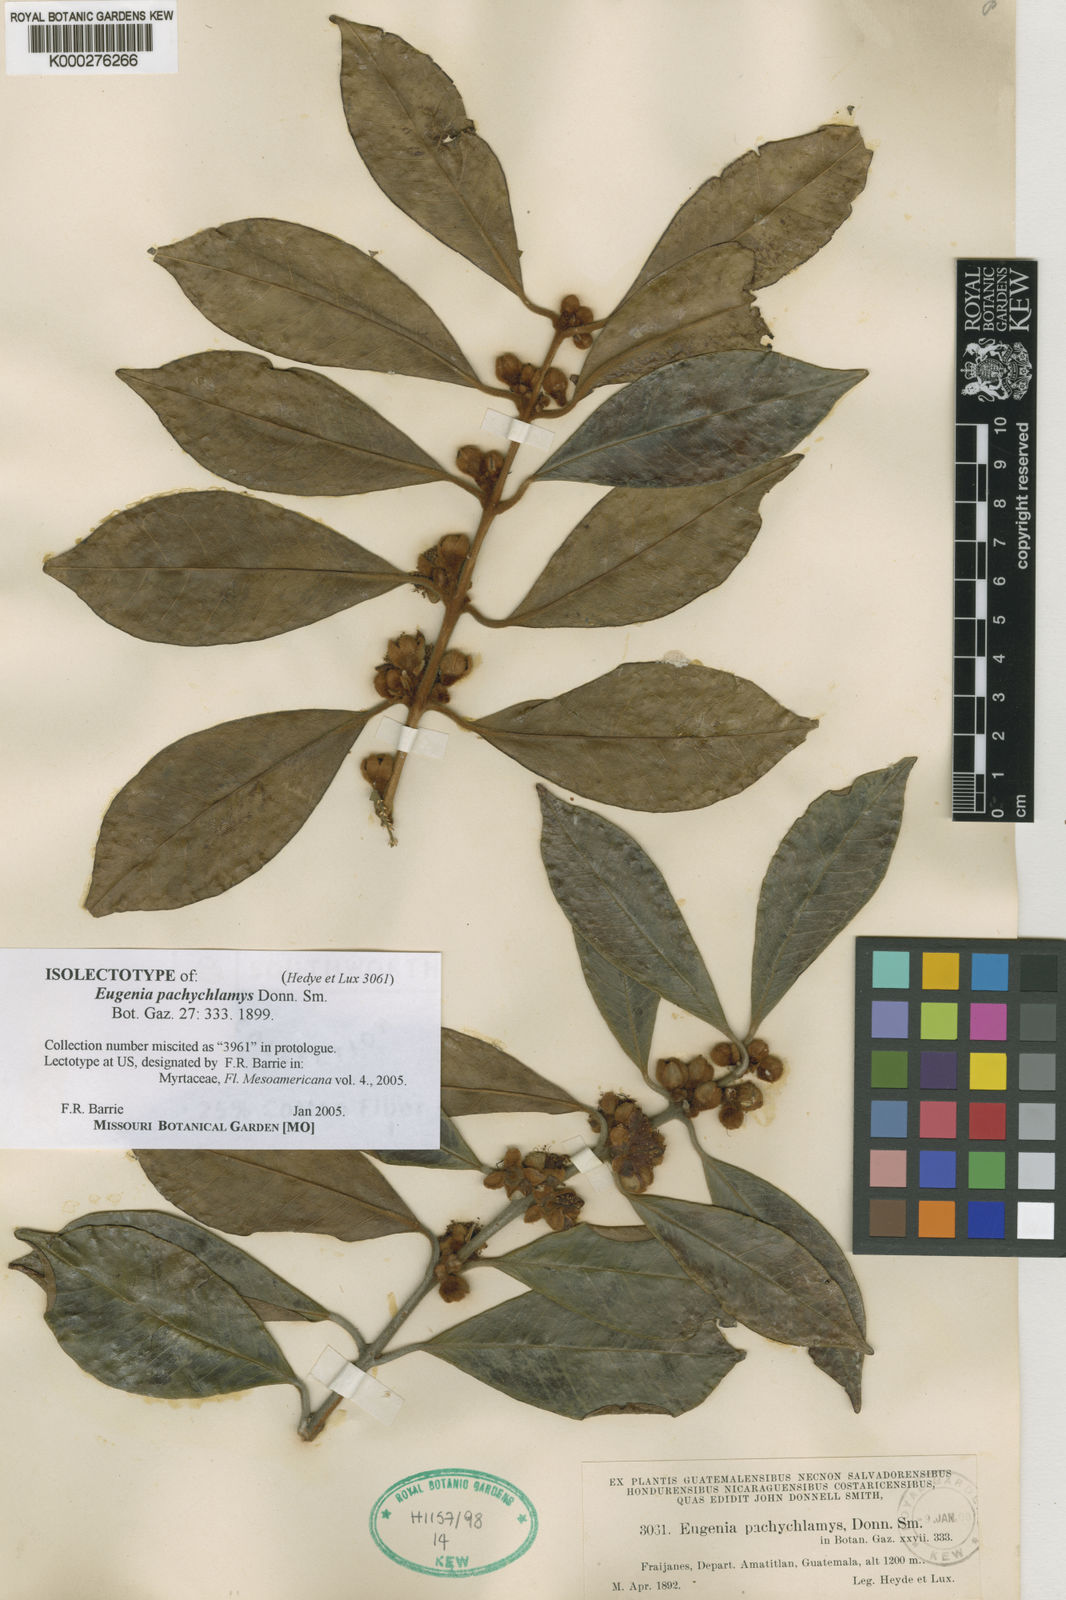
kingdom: Plantae
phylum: Tracheophyta
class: Magnoliopsida
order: Myrtales
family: Myrtaceae
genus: Eugenia
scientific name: Eugenia pachychlamys
